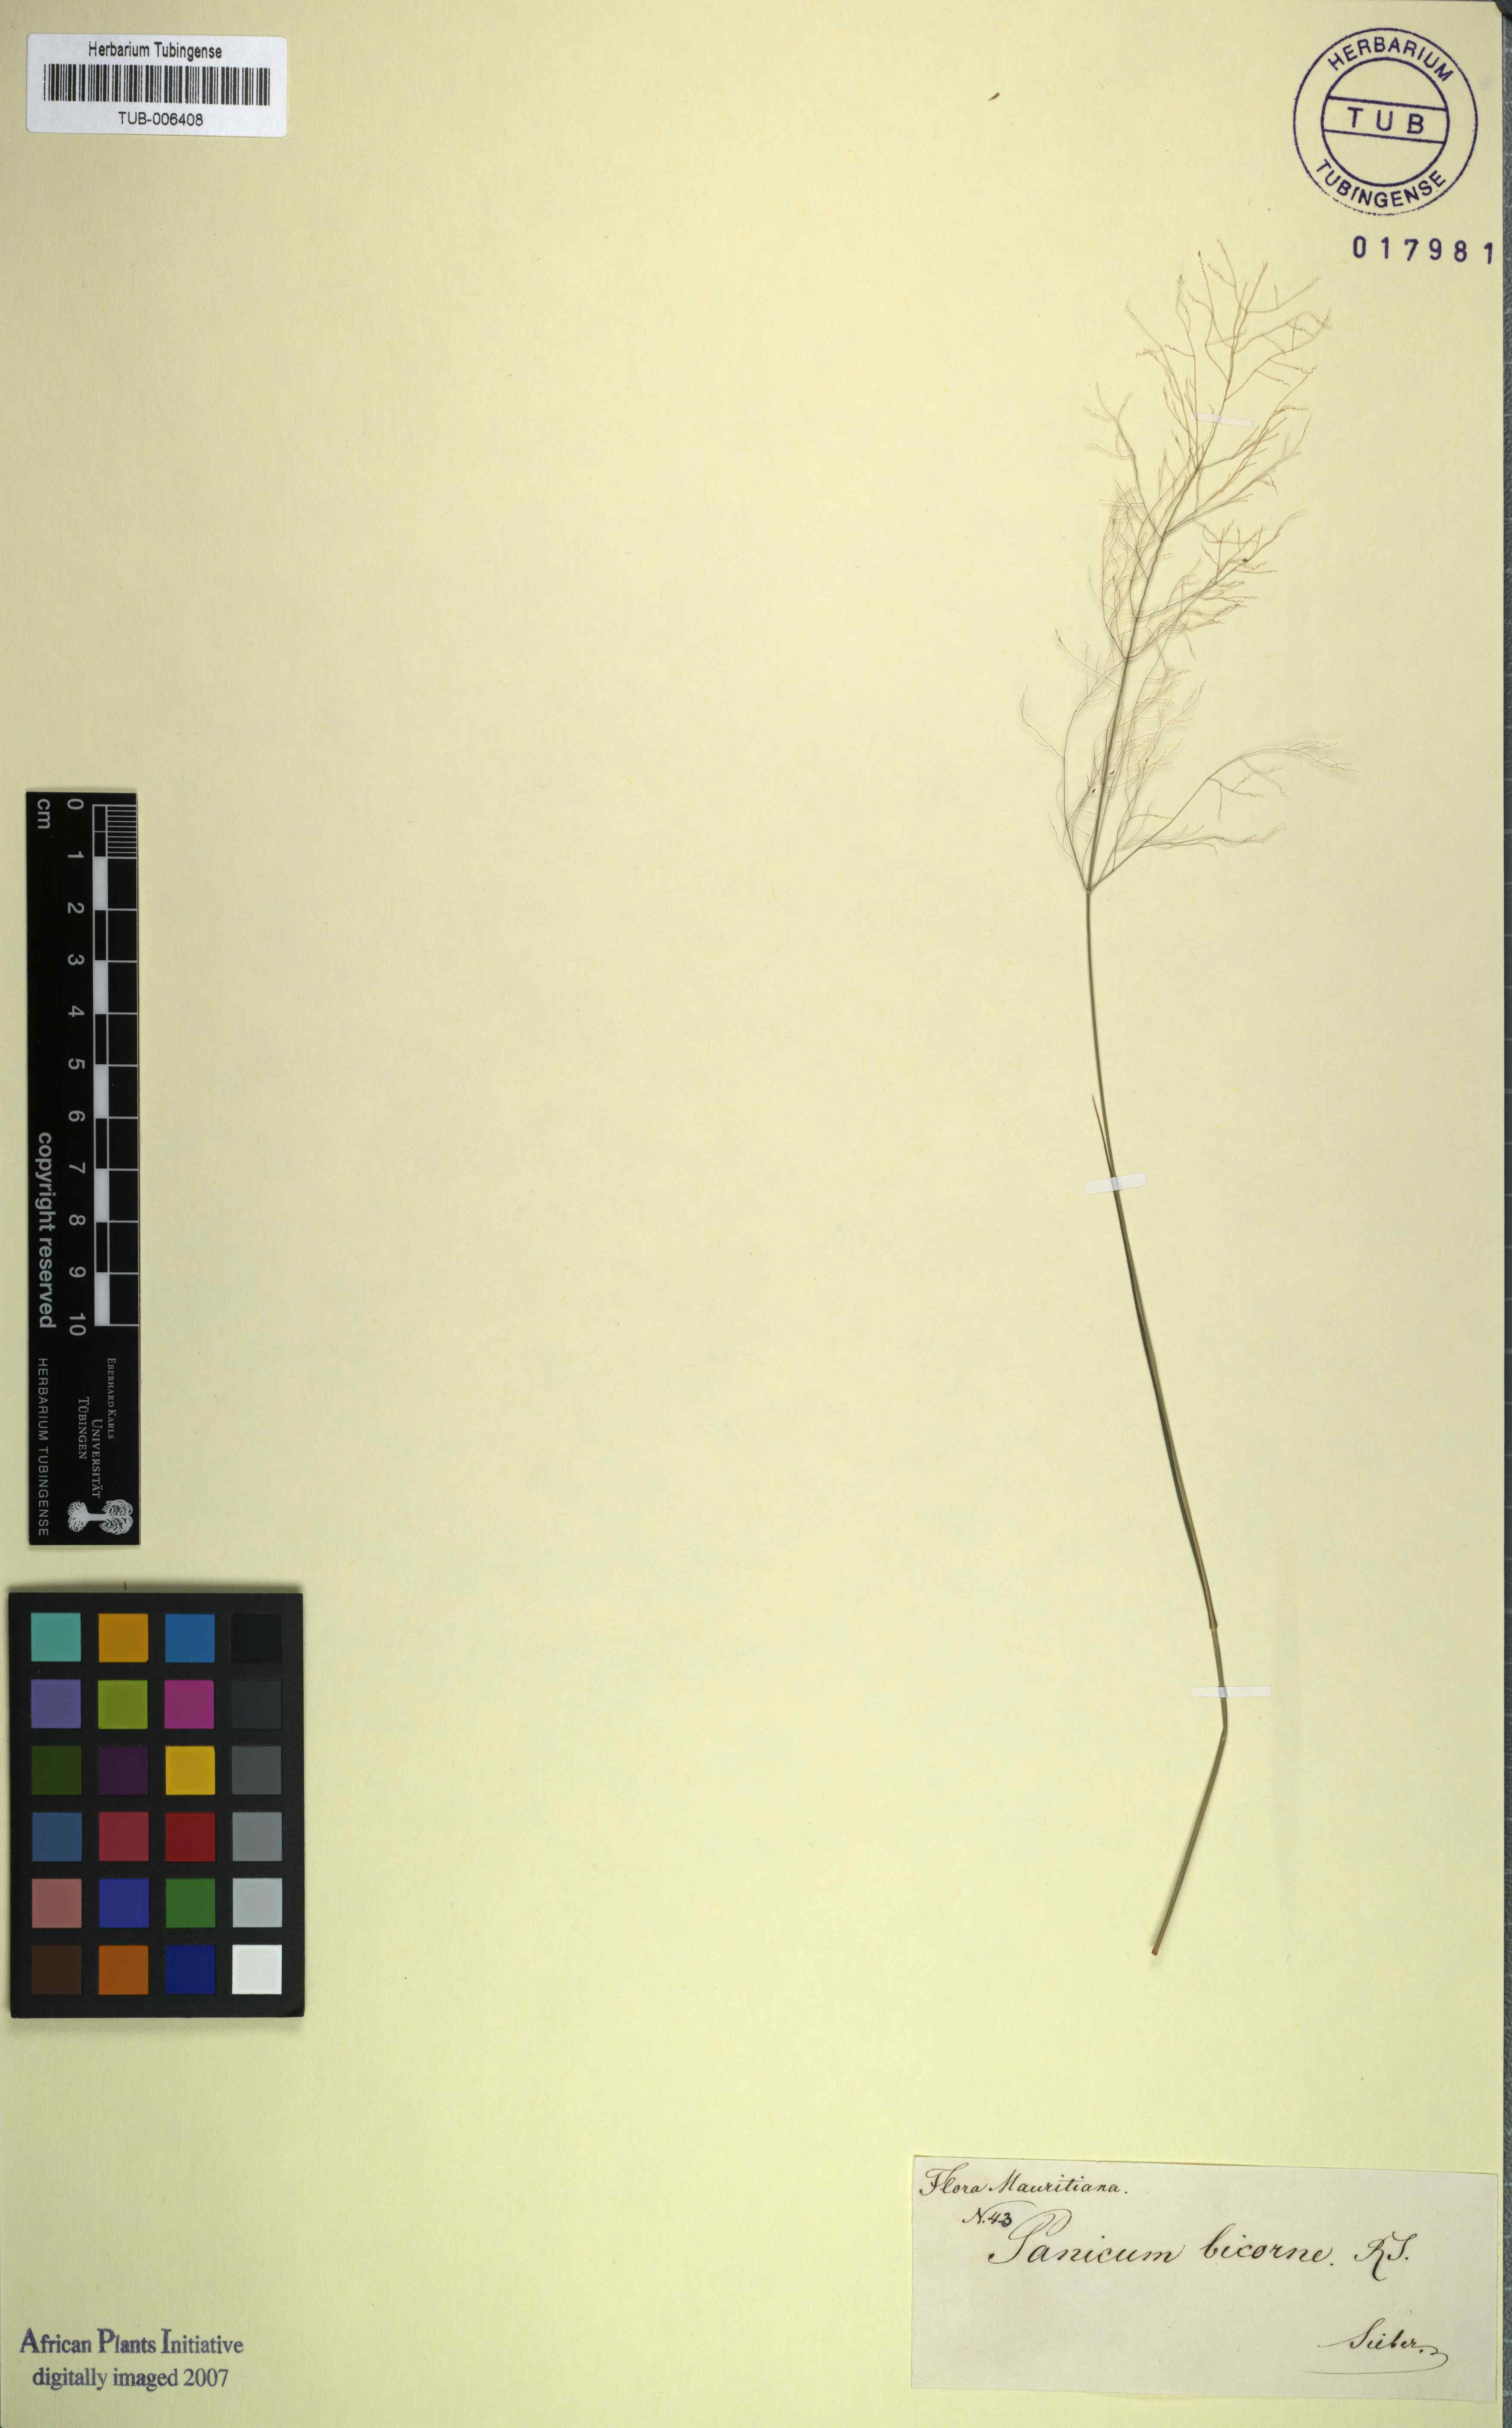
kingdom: Plantae
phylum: Tracheophyta
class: Liliopsida
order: Poales
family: Poaceae
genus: Digitaria
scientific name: Digitaria didactyla
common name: Blue couch
